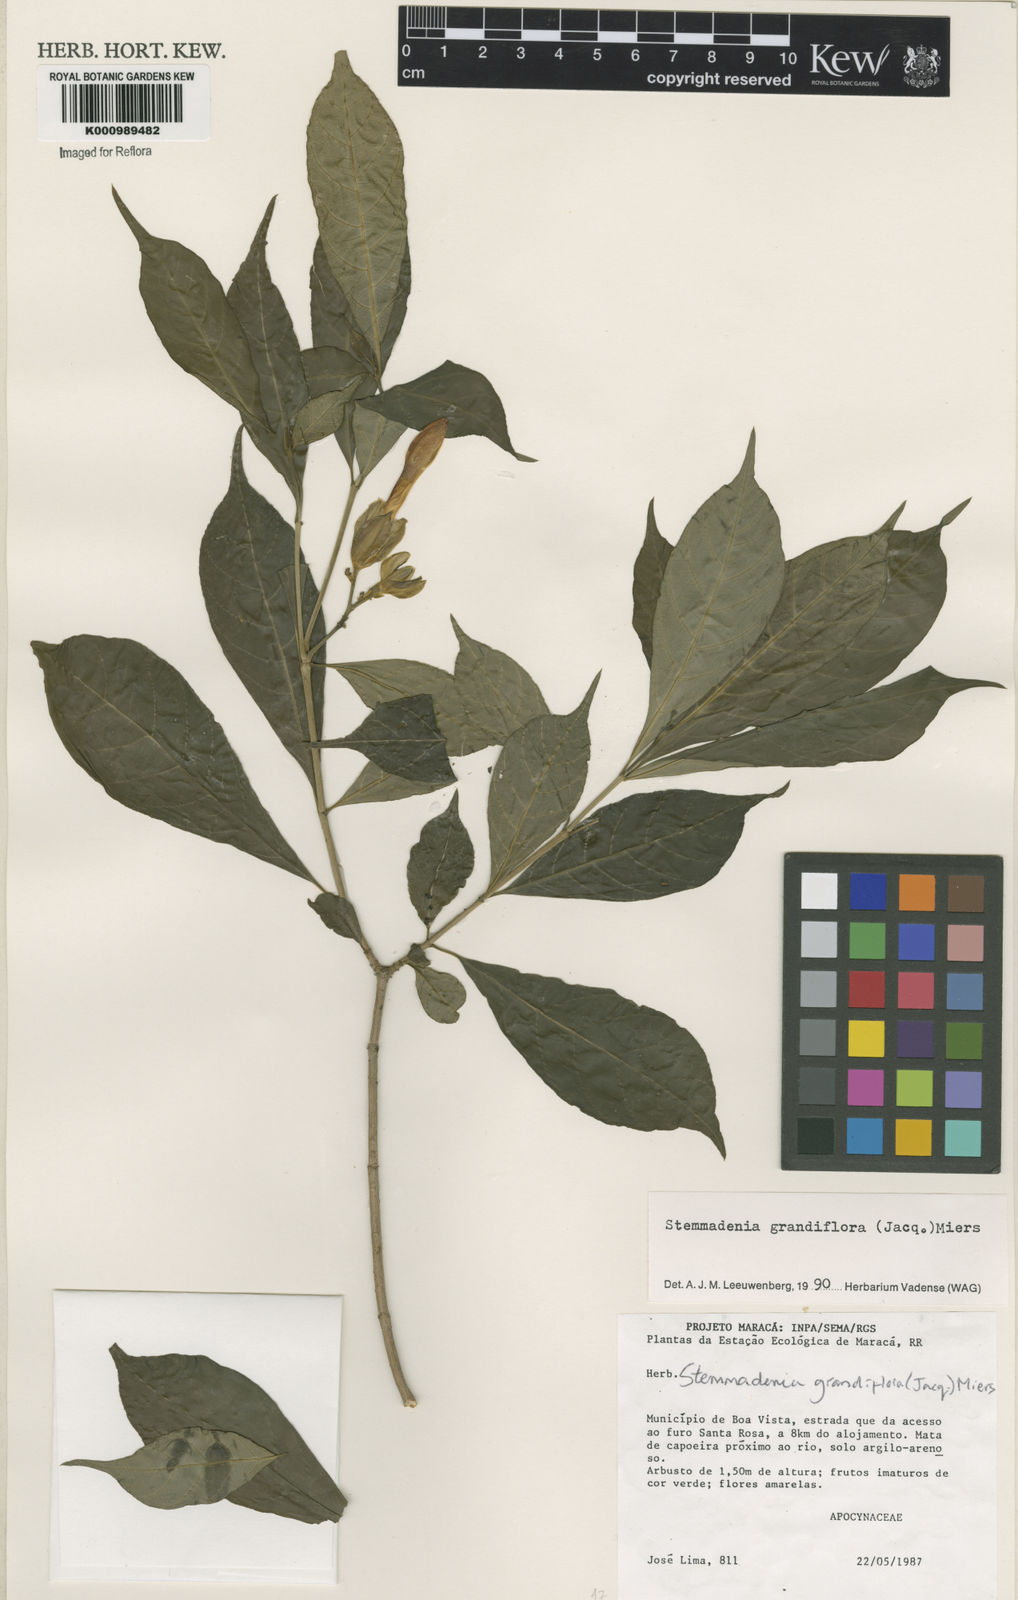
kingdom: Plantae
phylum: Tracheophyta
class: Magnoliopsida
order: Gentianales
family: Apocynaceae
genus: Tabernaemontana
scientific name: Tabernaemontana grandiflora
